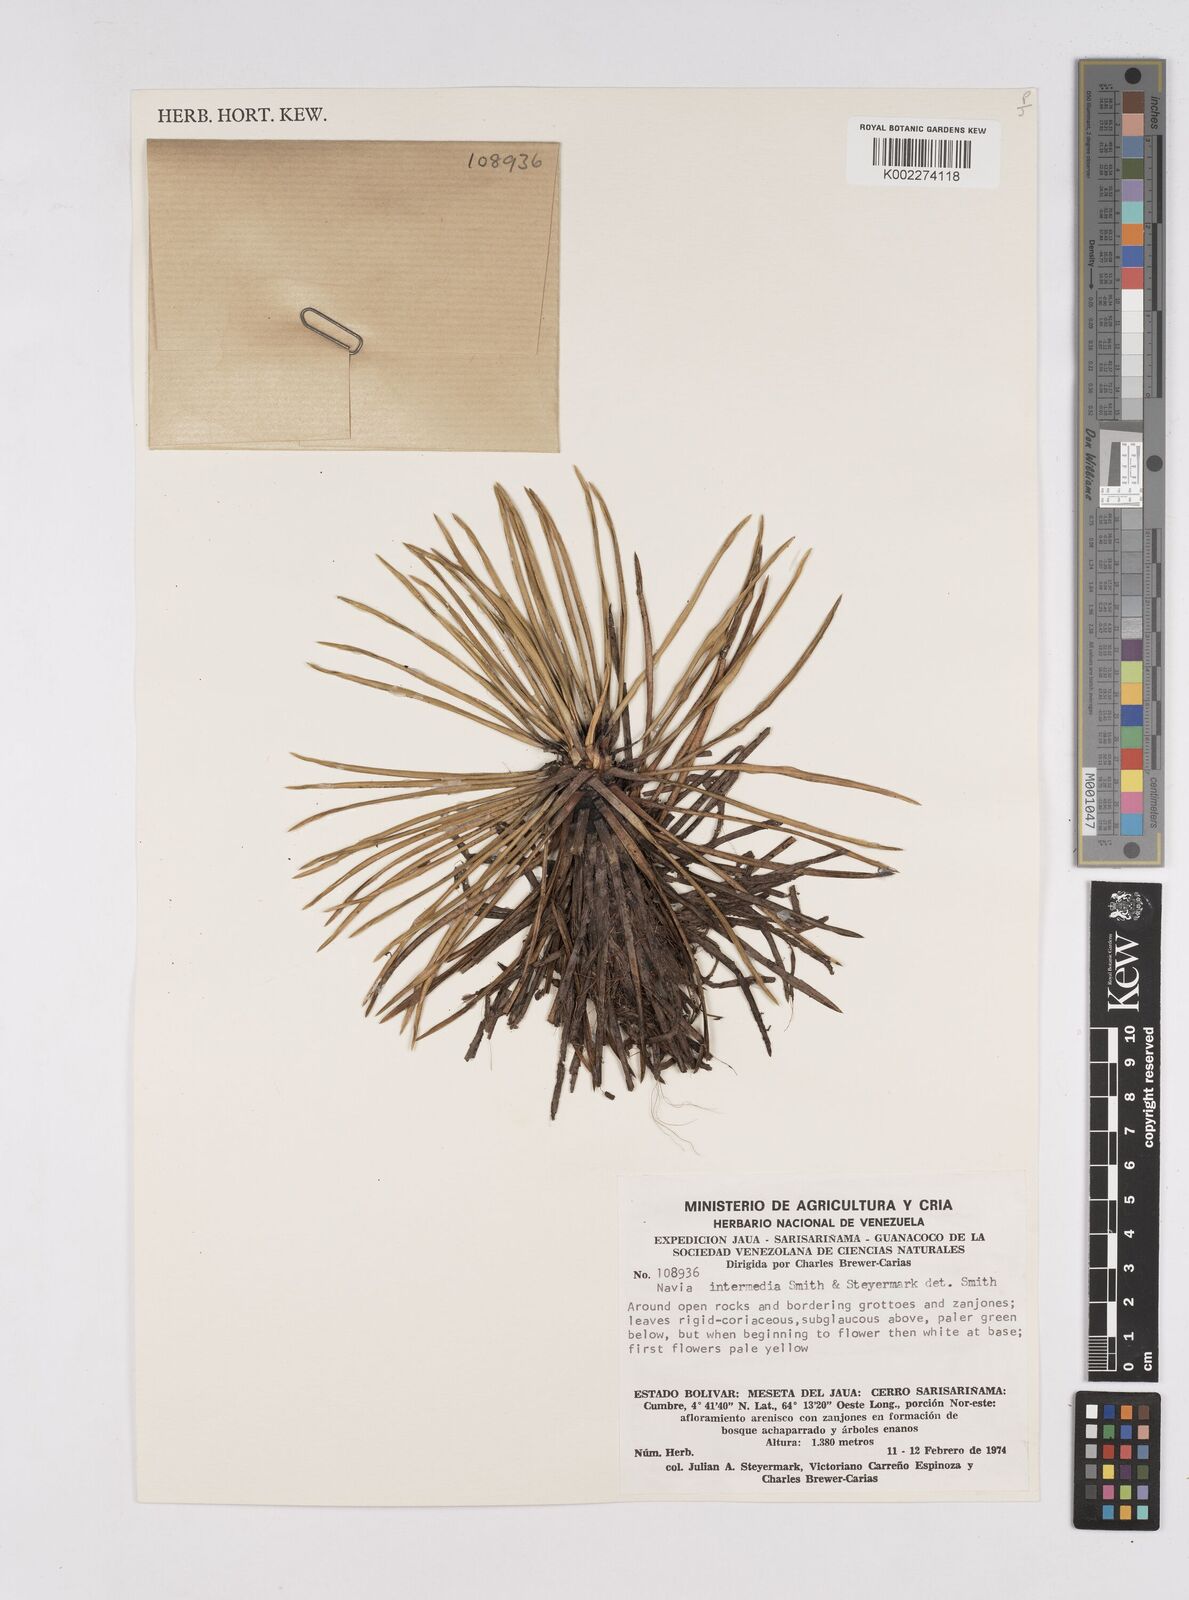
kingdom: Plantae
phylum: Tracheophyta
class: Liliopsida
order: Poales
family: Bromeliaceae
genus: Navia
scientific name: Navia intermedia
